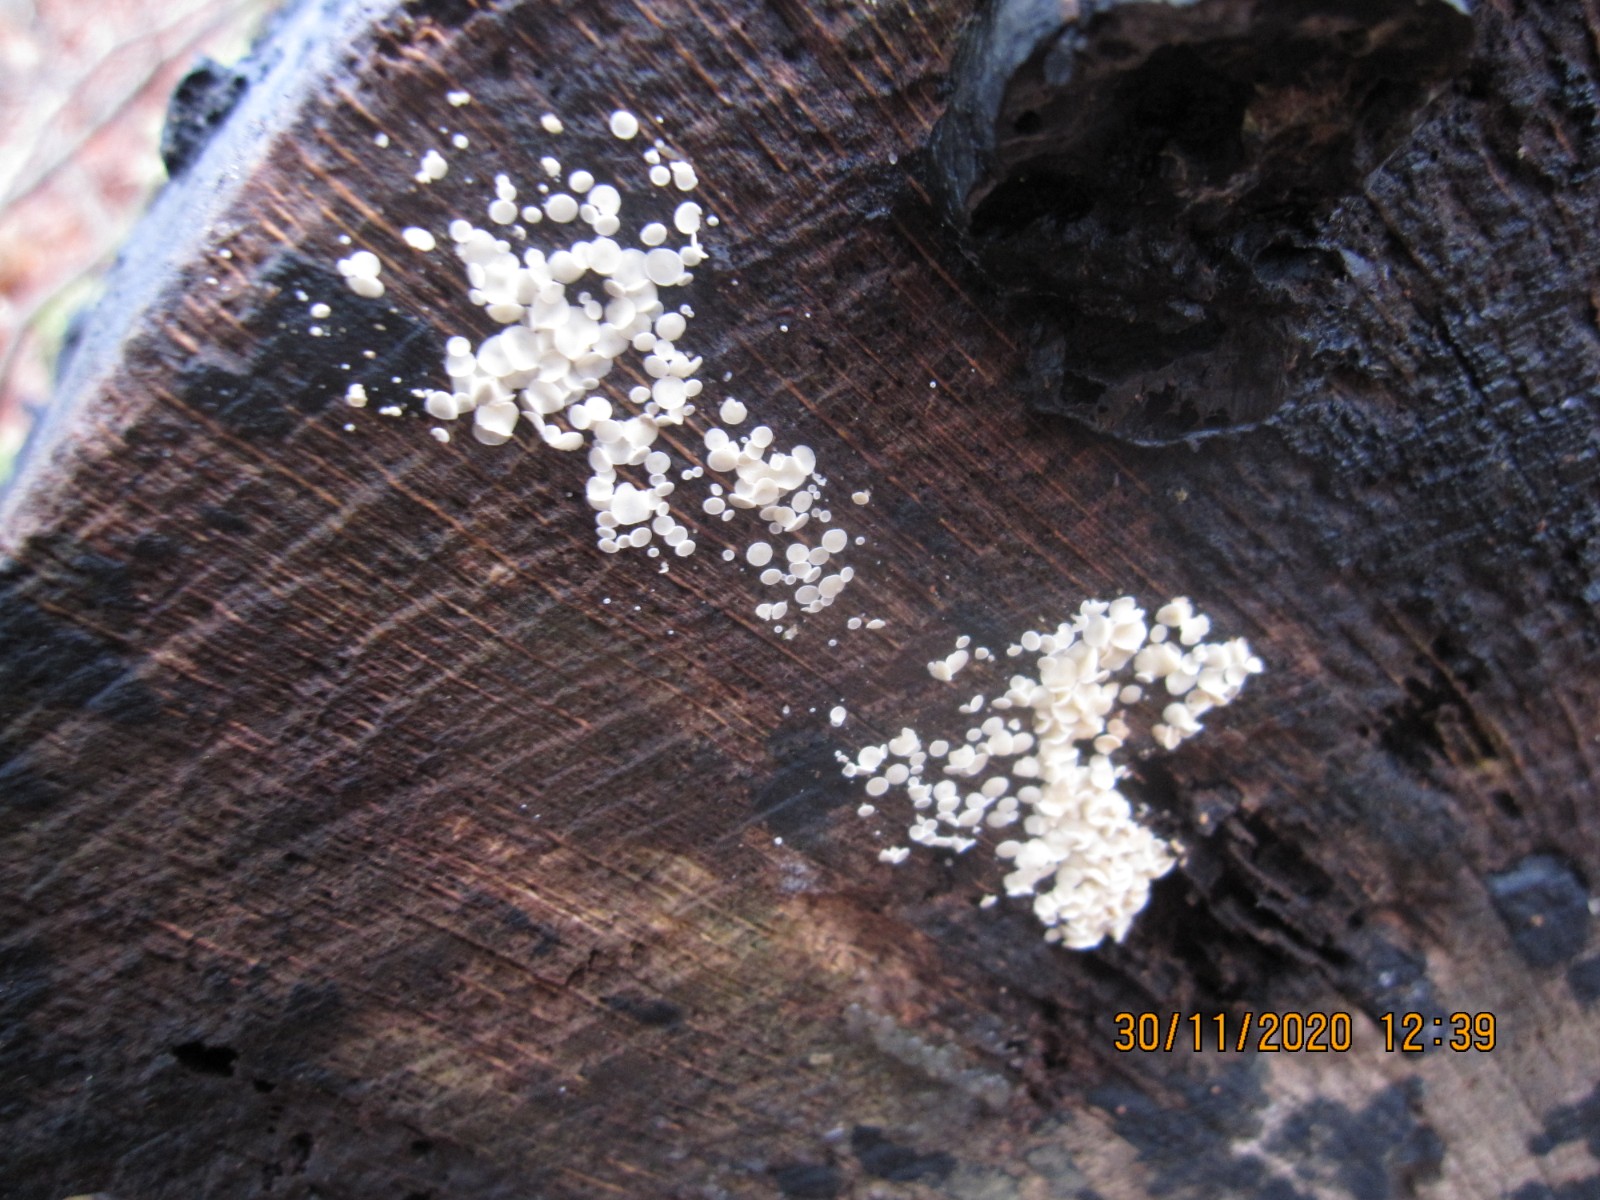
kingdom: Fungi
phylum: Ascomycota
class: Leotiomycetes
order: Helotiales
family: Lachnaceae
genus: Lachnum
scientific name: Lachnum brevipilosum
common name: korthåret frynseskive
